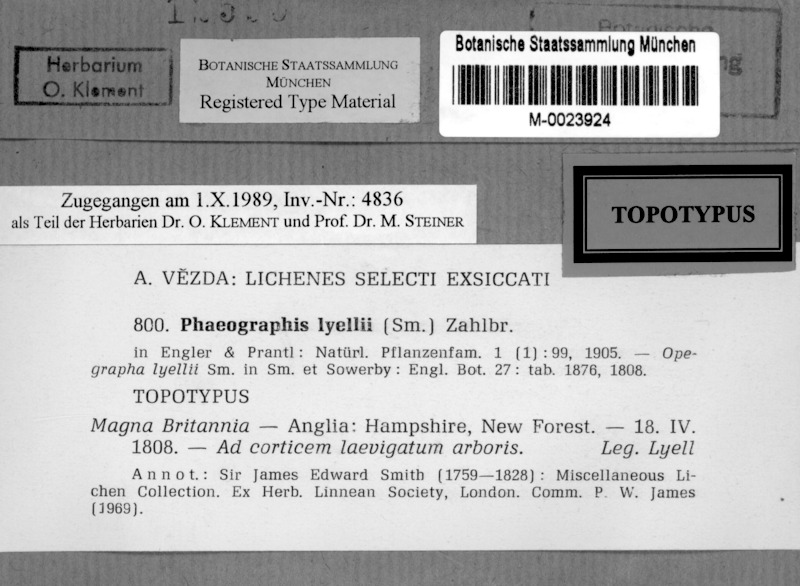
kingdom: Fungi
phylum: Ascomycota
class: Lecanoromycetes
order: Ostropales
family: Graphidaceae
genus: Phaeographis
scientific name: Phaeographis lyellii
